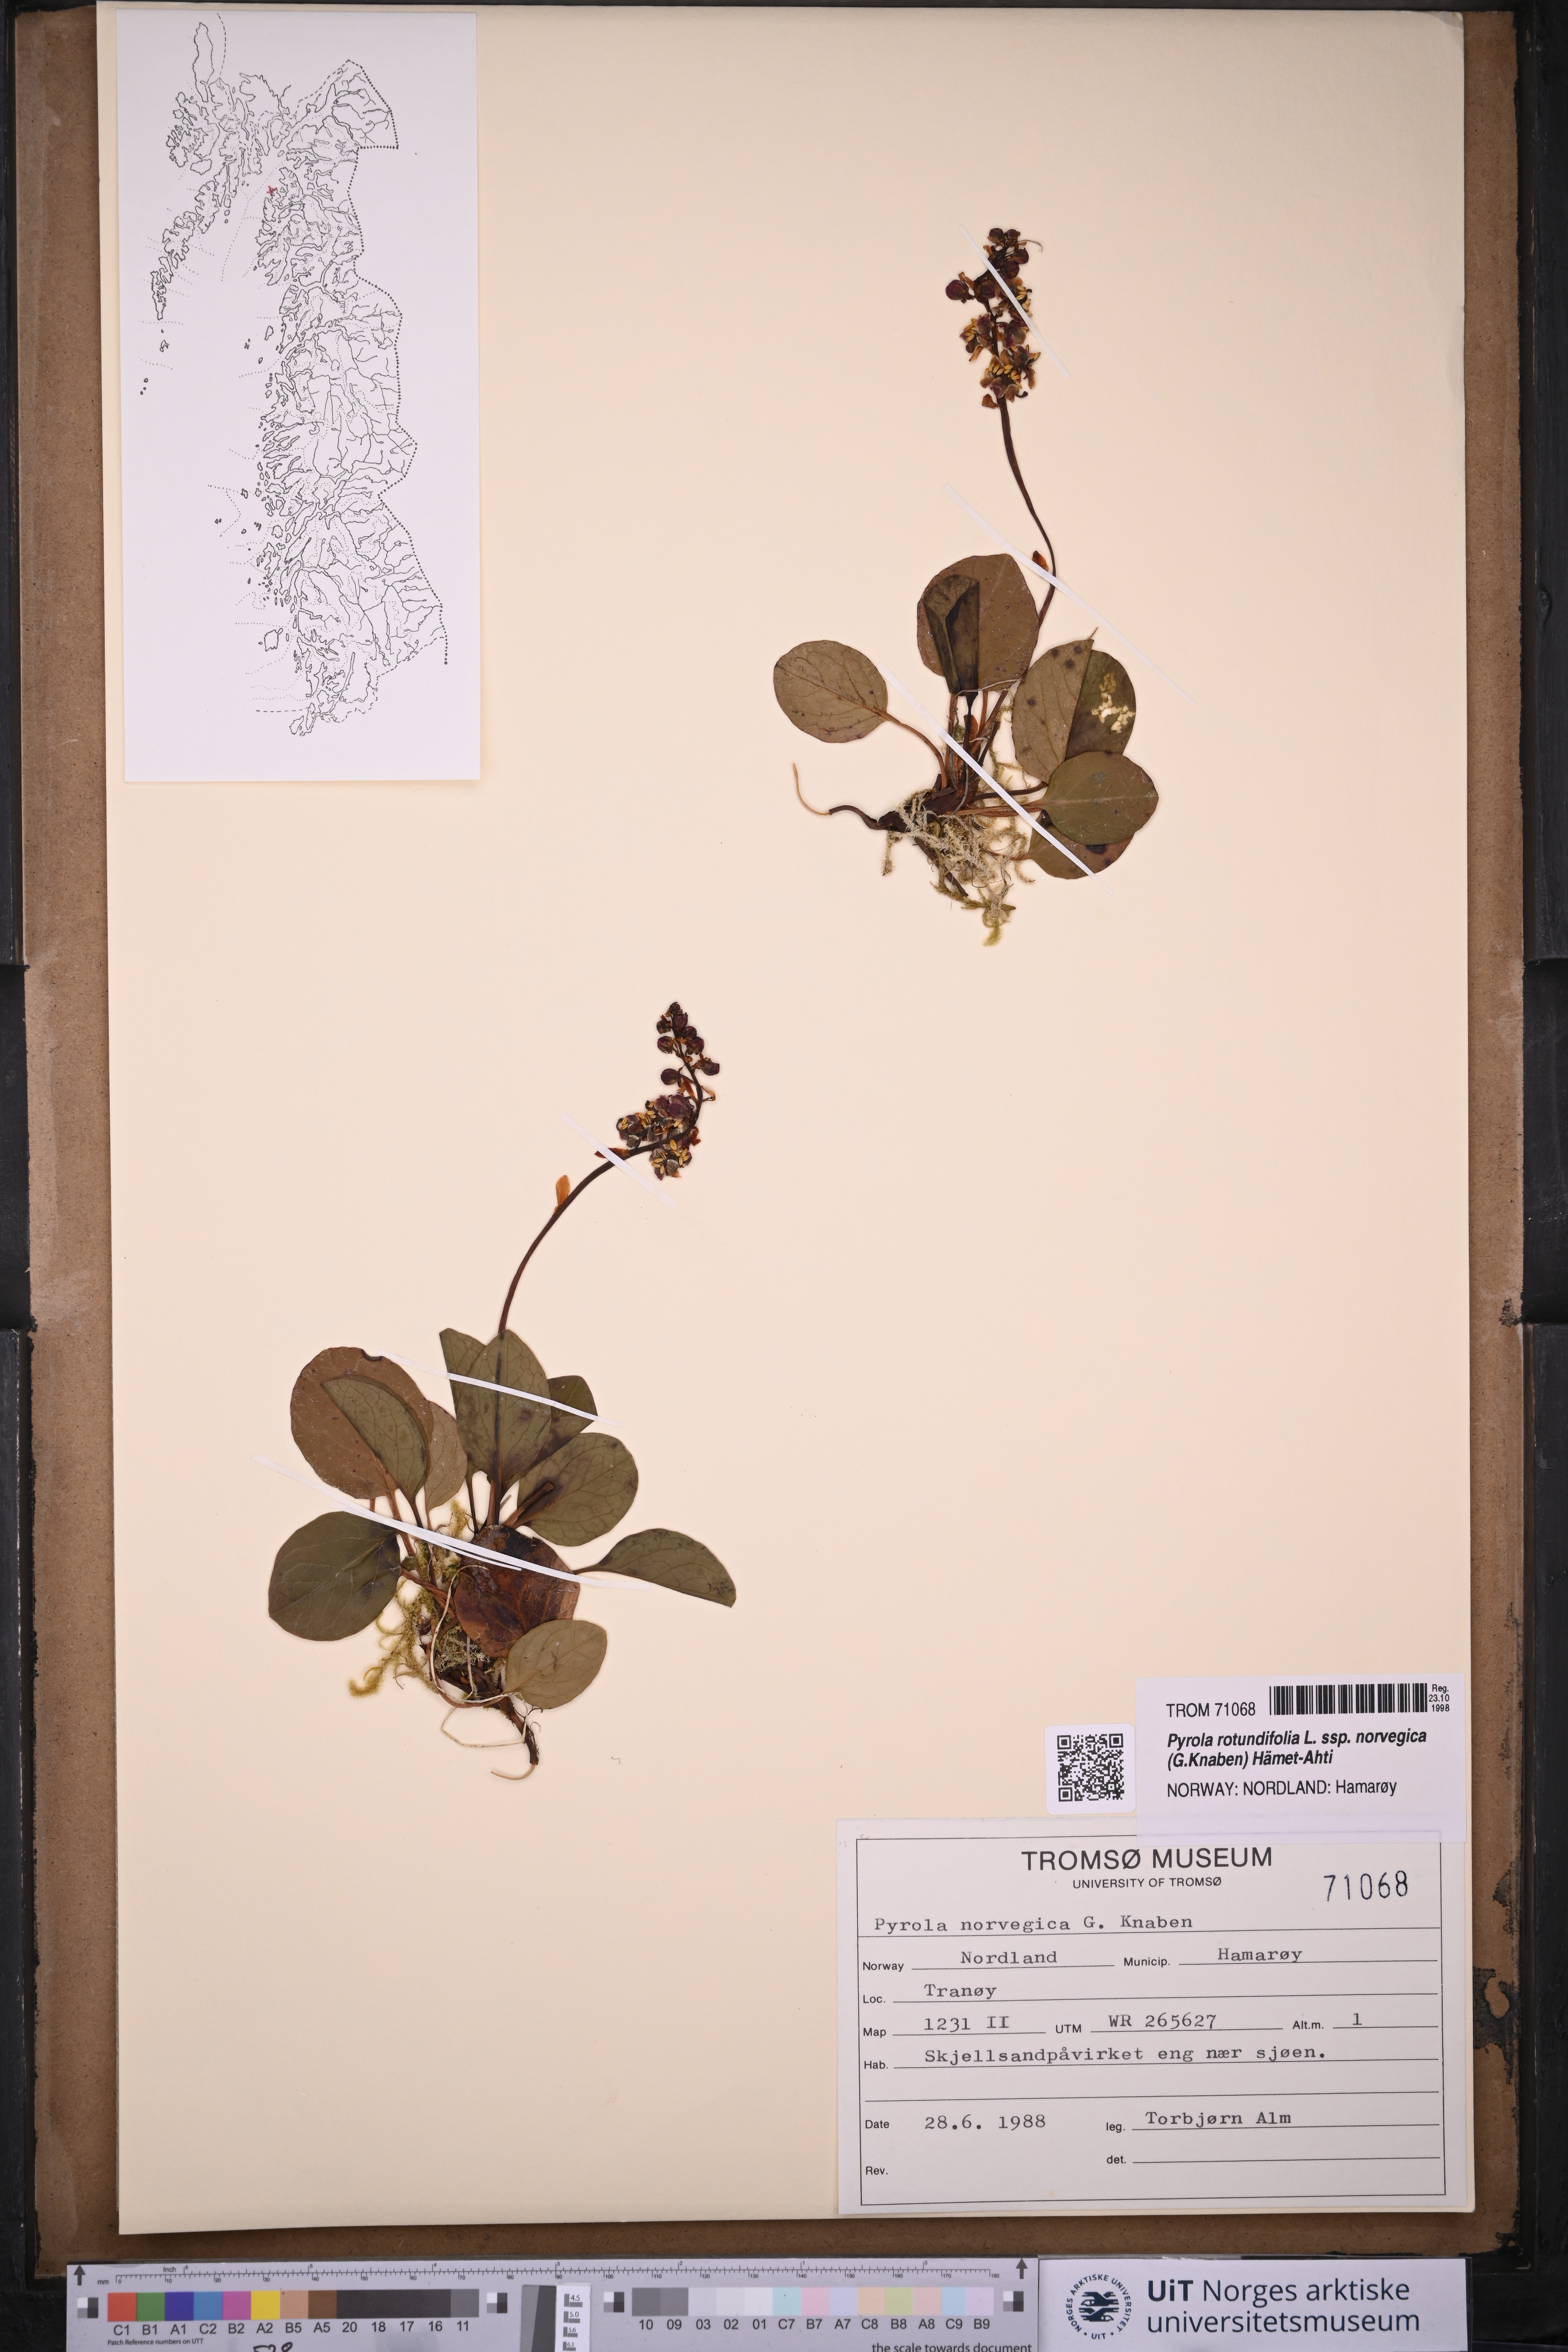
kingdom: Plantae
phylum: Tracheophyta
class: Magnoliopsida
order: Ericales
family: Ericaceae
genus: Pyrola
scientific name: Pyrola rotundifolia
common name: Round-leaved wintergreen
